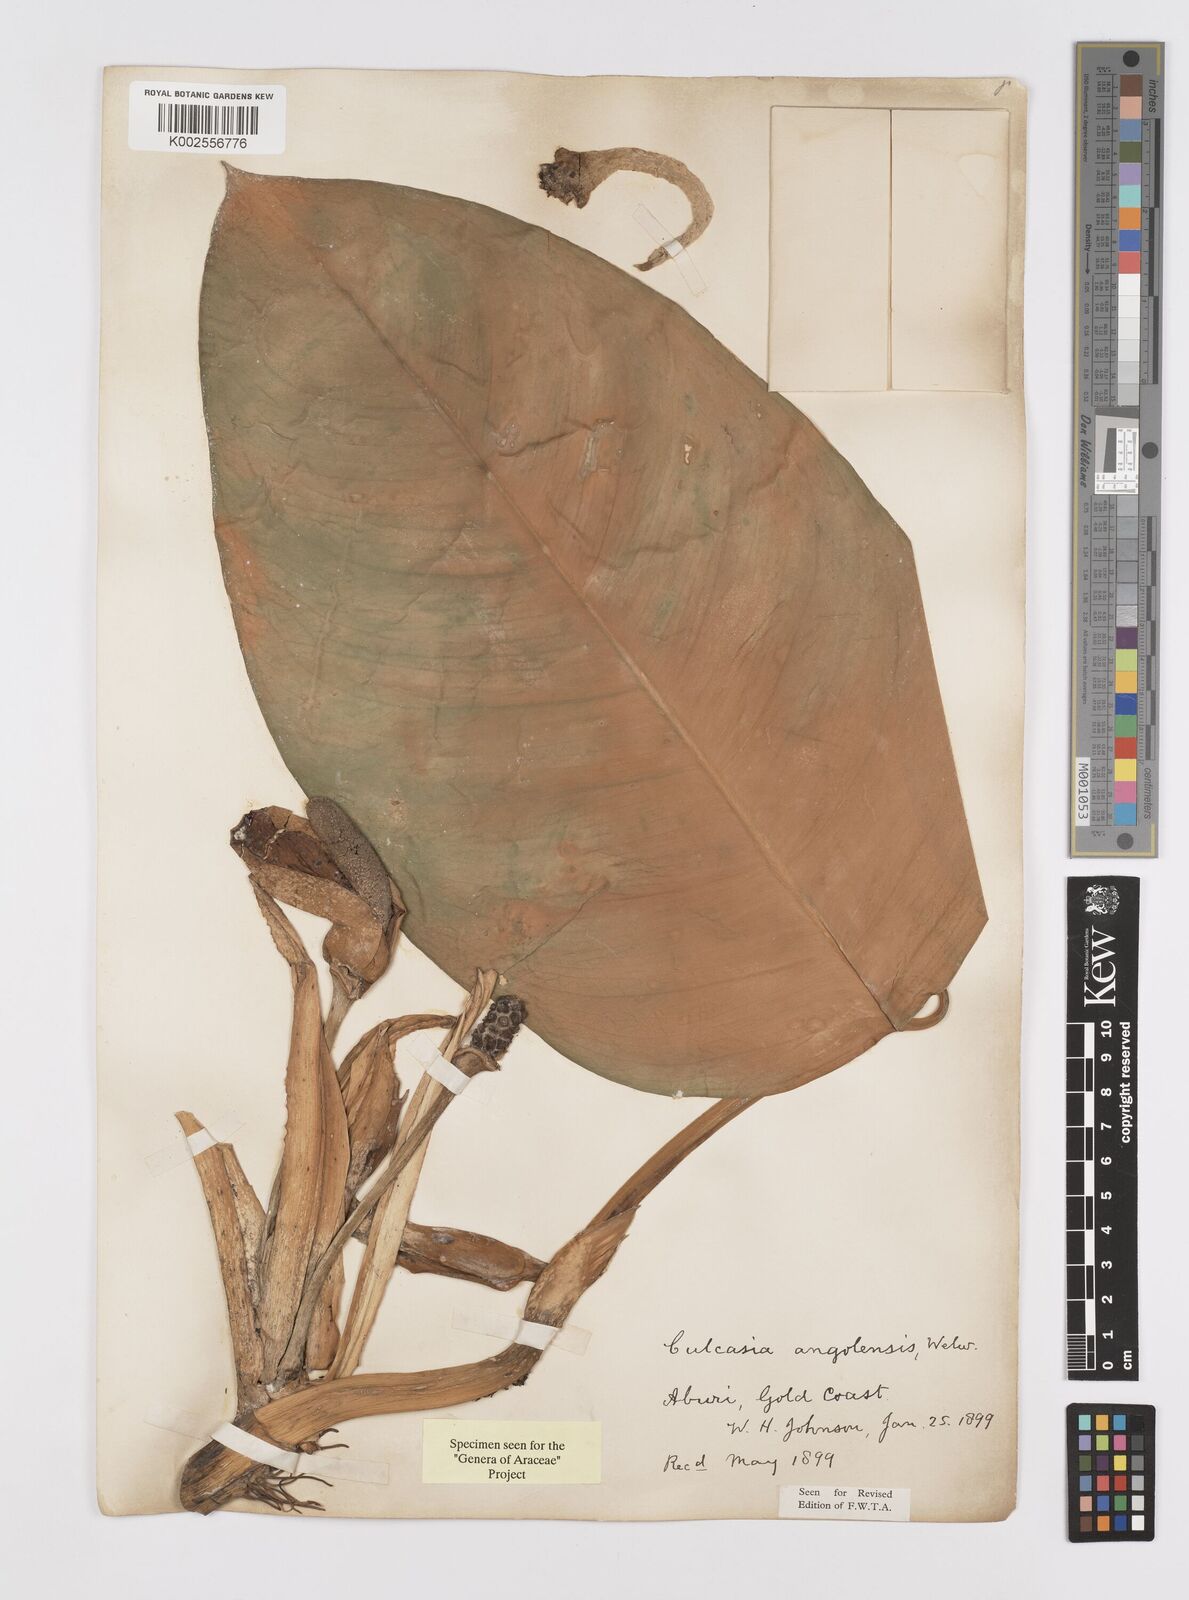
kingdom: Plantae
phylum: Tracheophyta
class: Liliopsida
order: Alismatales
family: Araceae
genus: Culcasia
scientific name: Culcasia angolensis
